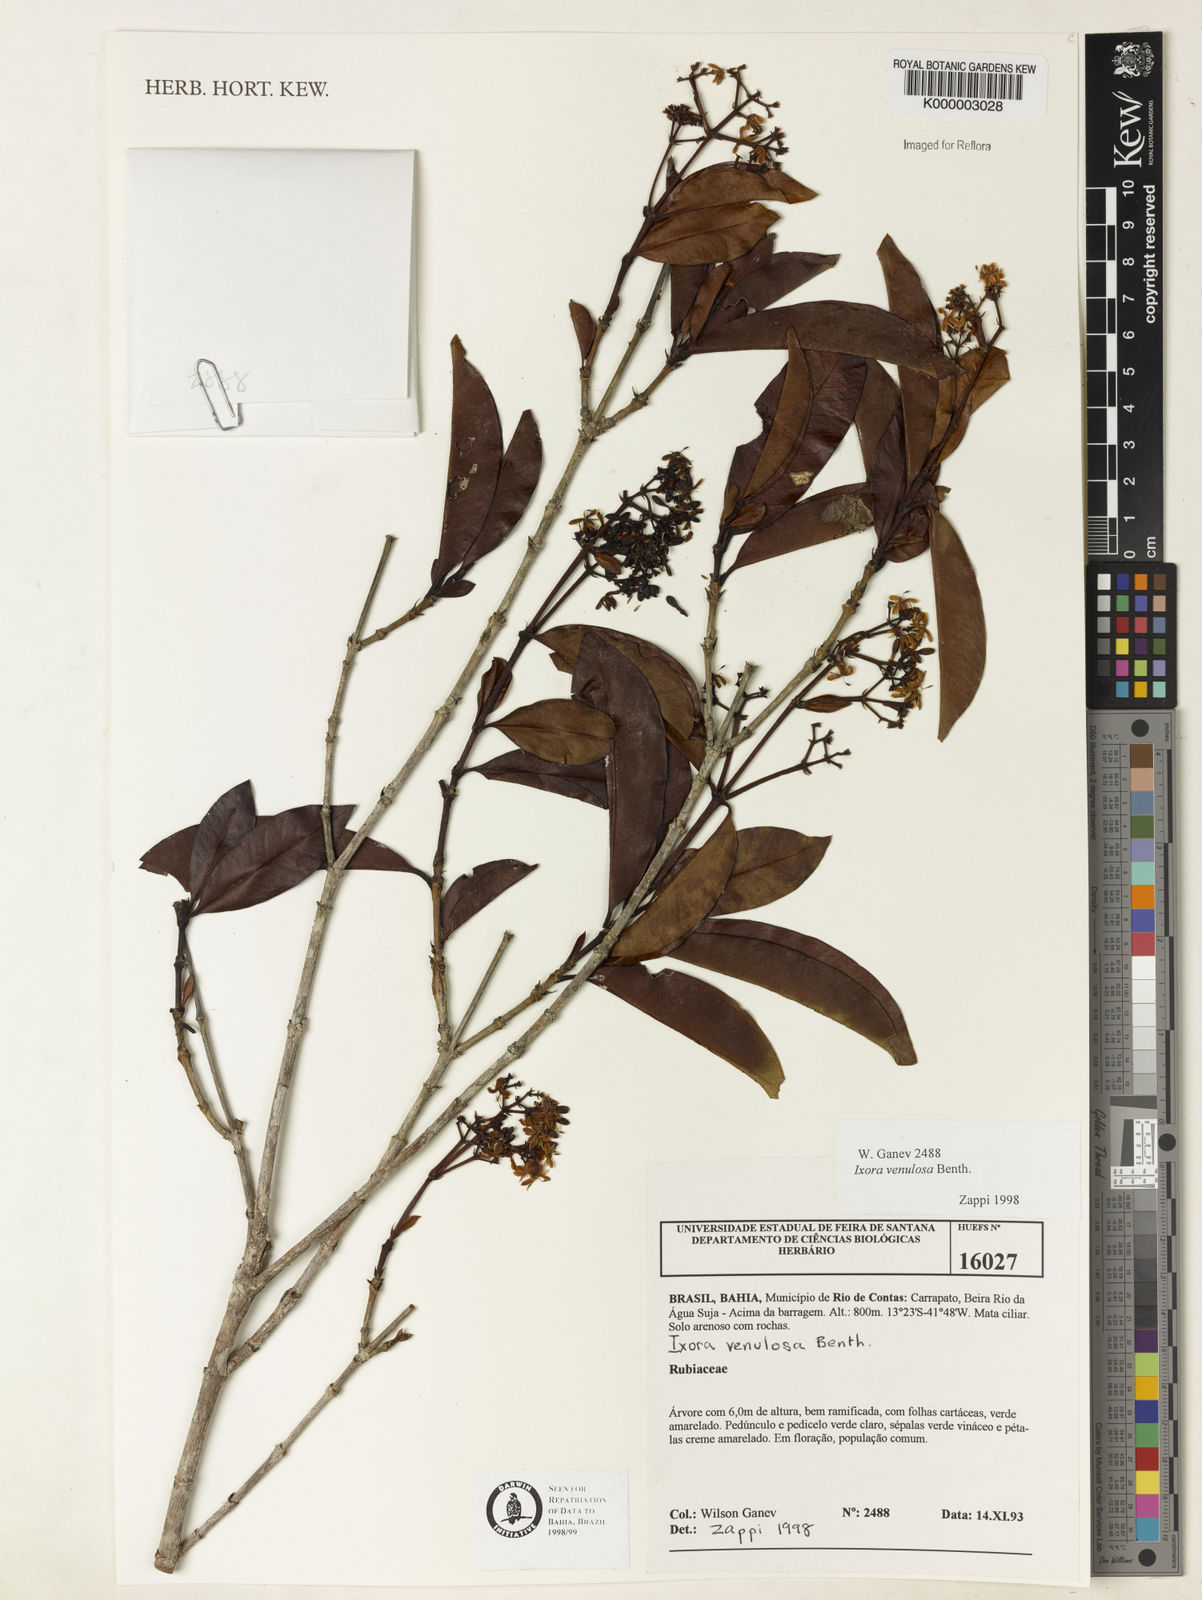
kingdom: Plantae
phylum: Tracheophyta
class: Magnoliopsida
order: Gentianales
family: Rubiaceae
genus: Ixora
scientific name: Ixora venulosa
